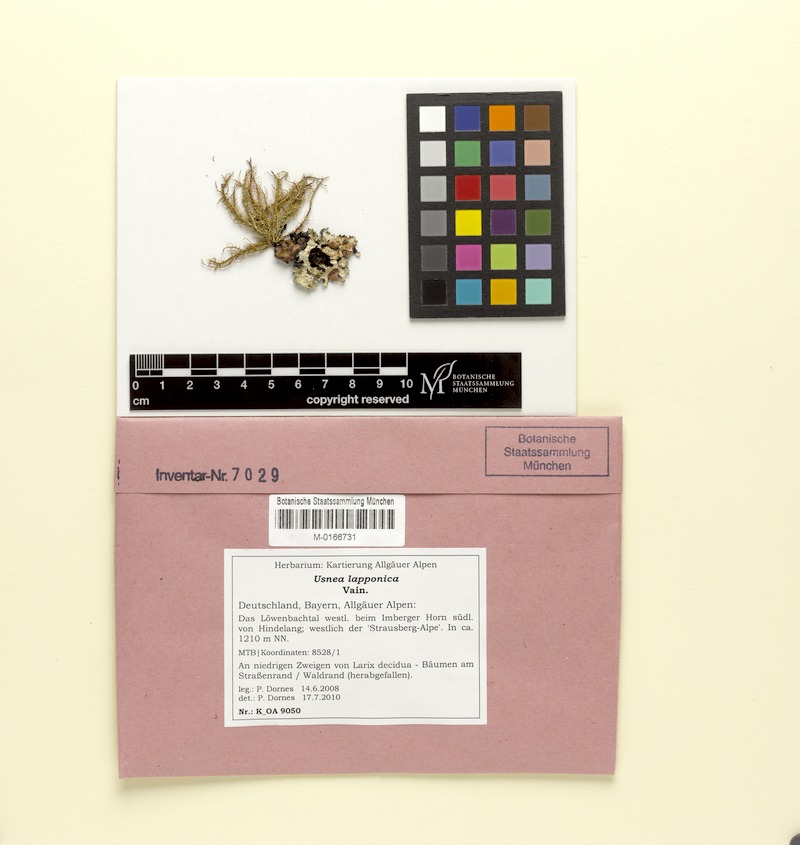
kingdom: Fungi
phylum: Ascomycota
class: Lecanoromycetes
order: Lecanorales
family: Parmeliaceae
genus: Usnea
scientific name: Usnea lapponica
